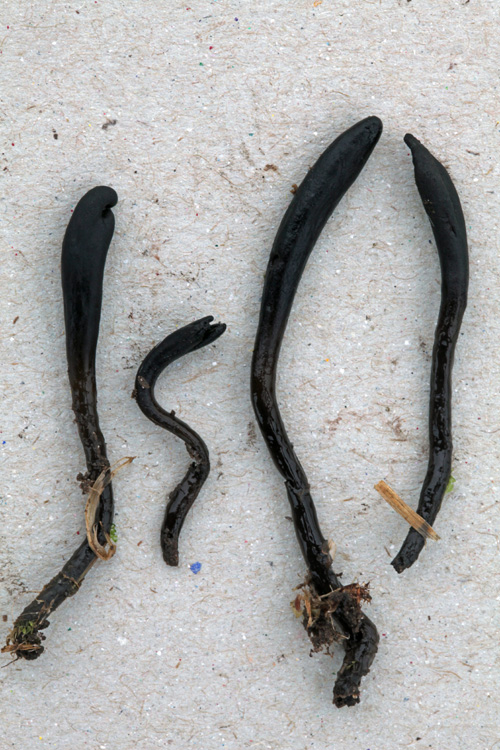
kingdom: Fungi
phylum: Ascomycota
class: Geoglossomycetes
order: Geoglossales
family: Geoglossaceae
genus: Glutinoglossum
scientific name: Glutinoglossum glutinosum
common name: slimet jordtunge
